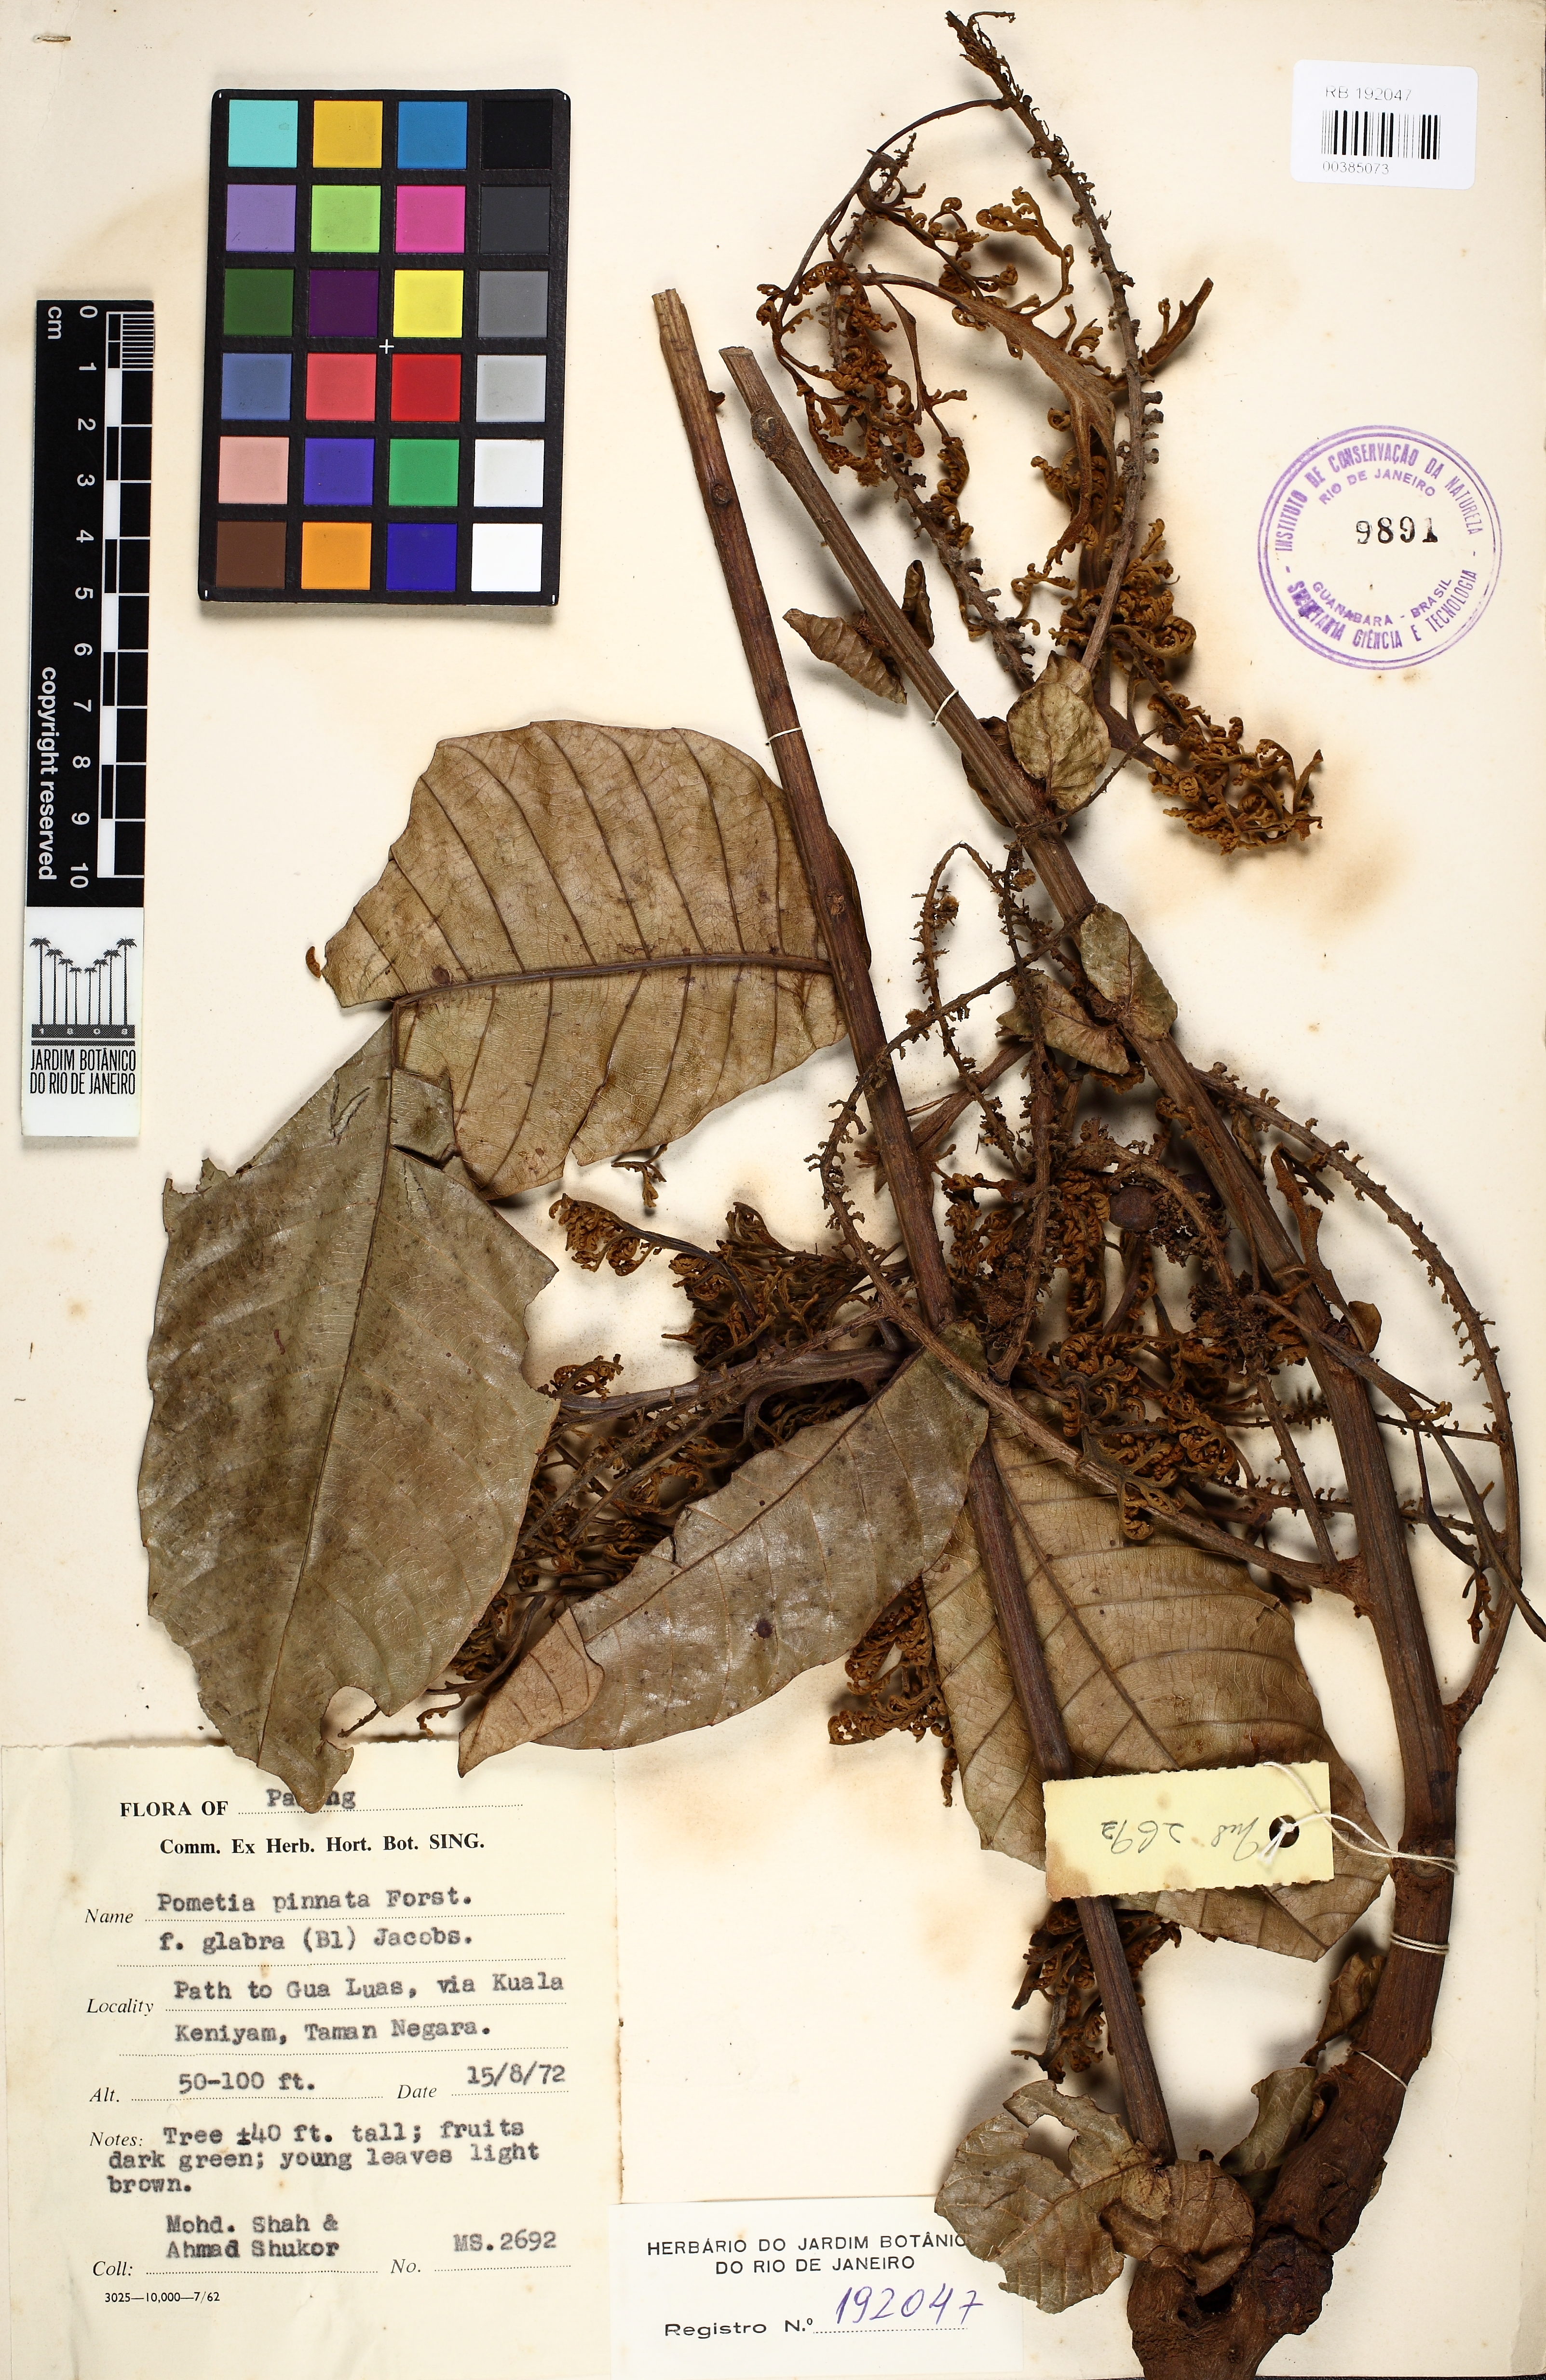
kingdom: Plantae
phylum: Tracheophyta
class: Magnoliopsida
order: Sapindales
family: Sapindaceae
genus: Pometia
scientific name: Pometia pinnata
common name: Oceanic lychee
